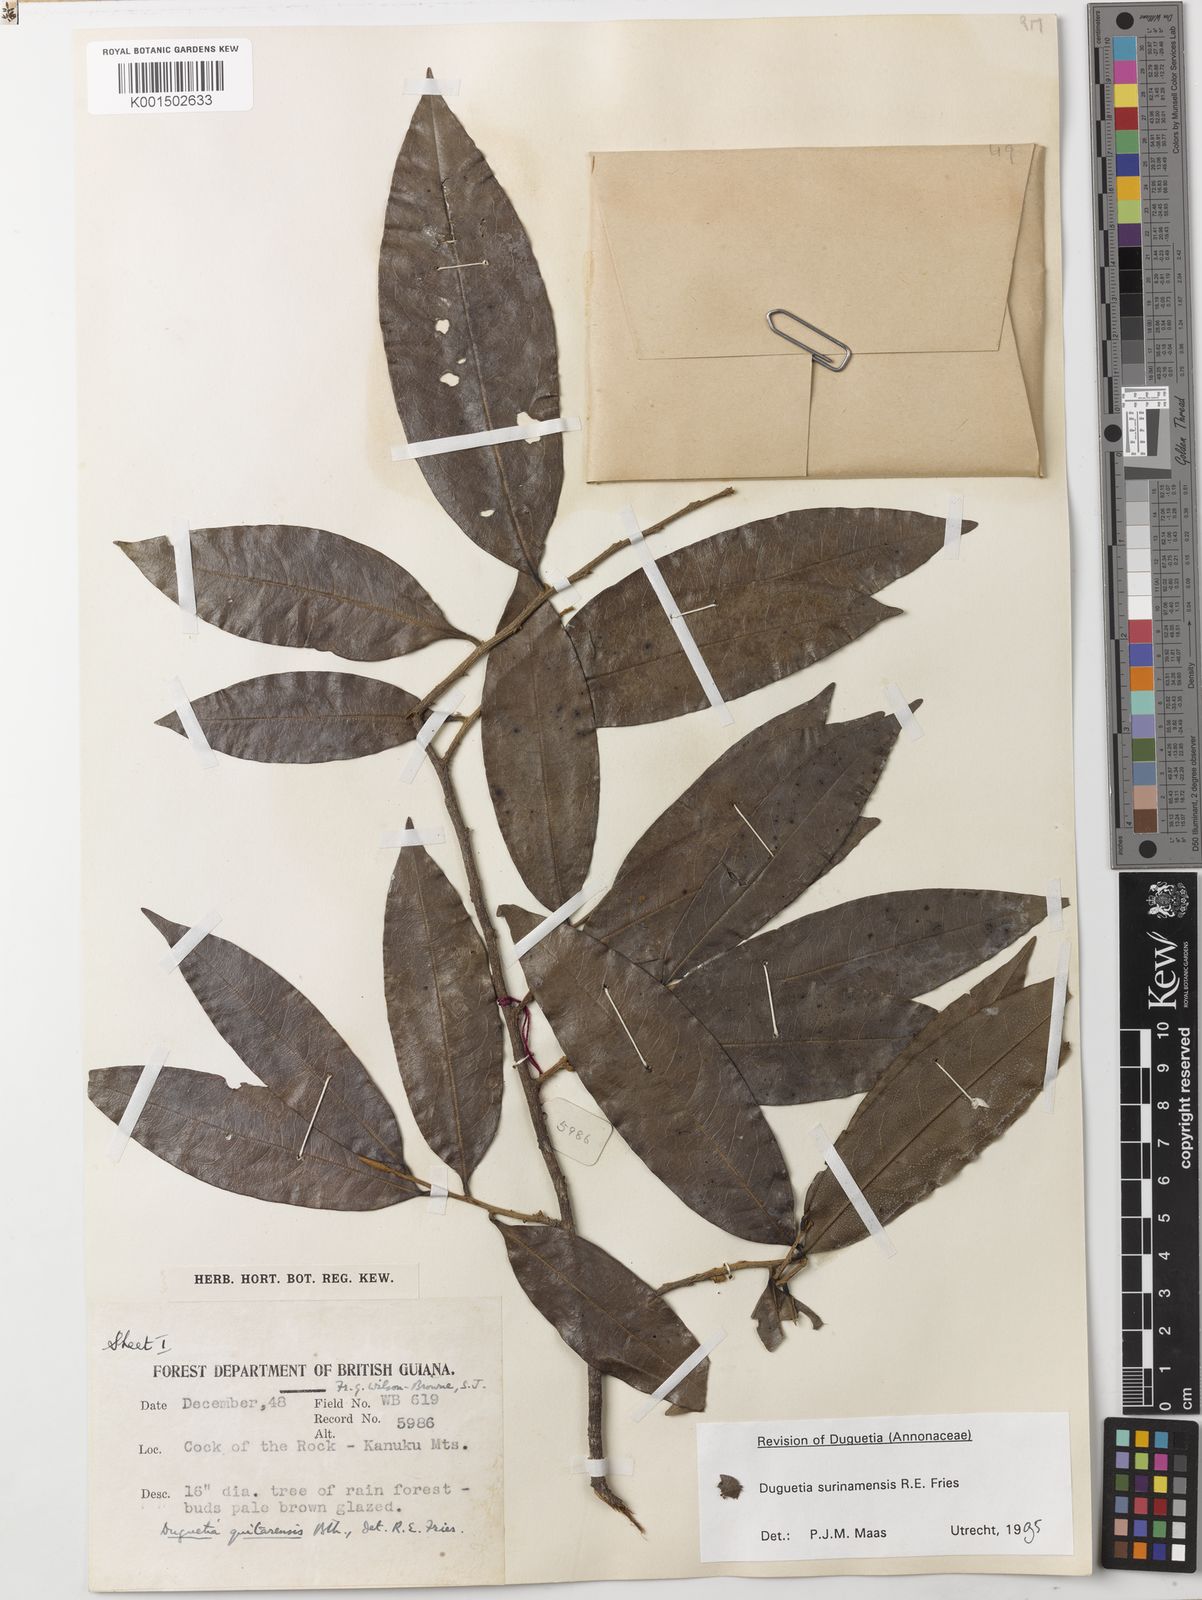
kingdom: Plantae
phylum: Tracheophyta
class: Magnoliopsida
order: Magnoliales
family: Annonaceae
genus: Duguetia
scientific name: Duguetia surinamensis
